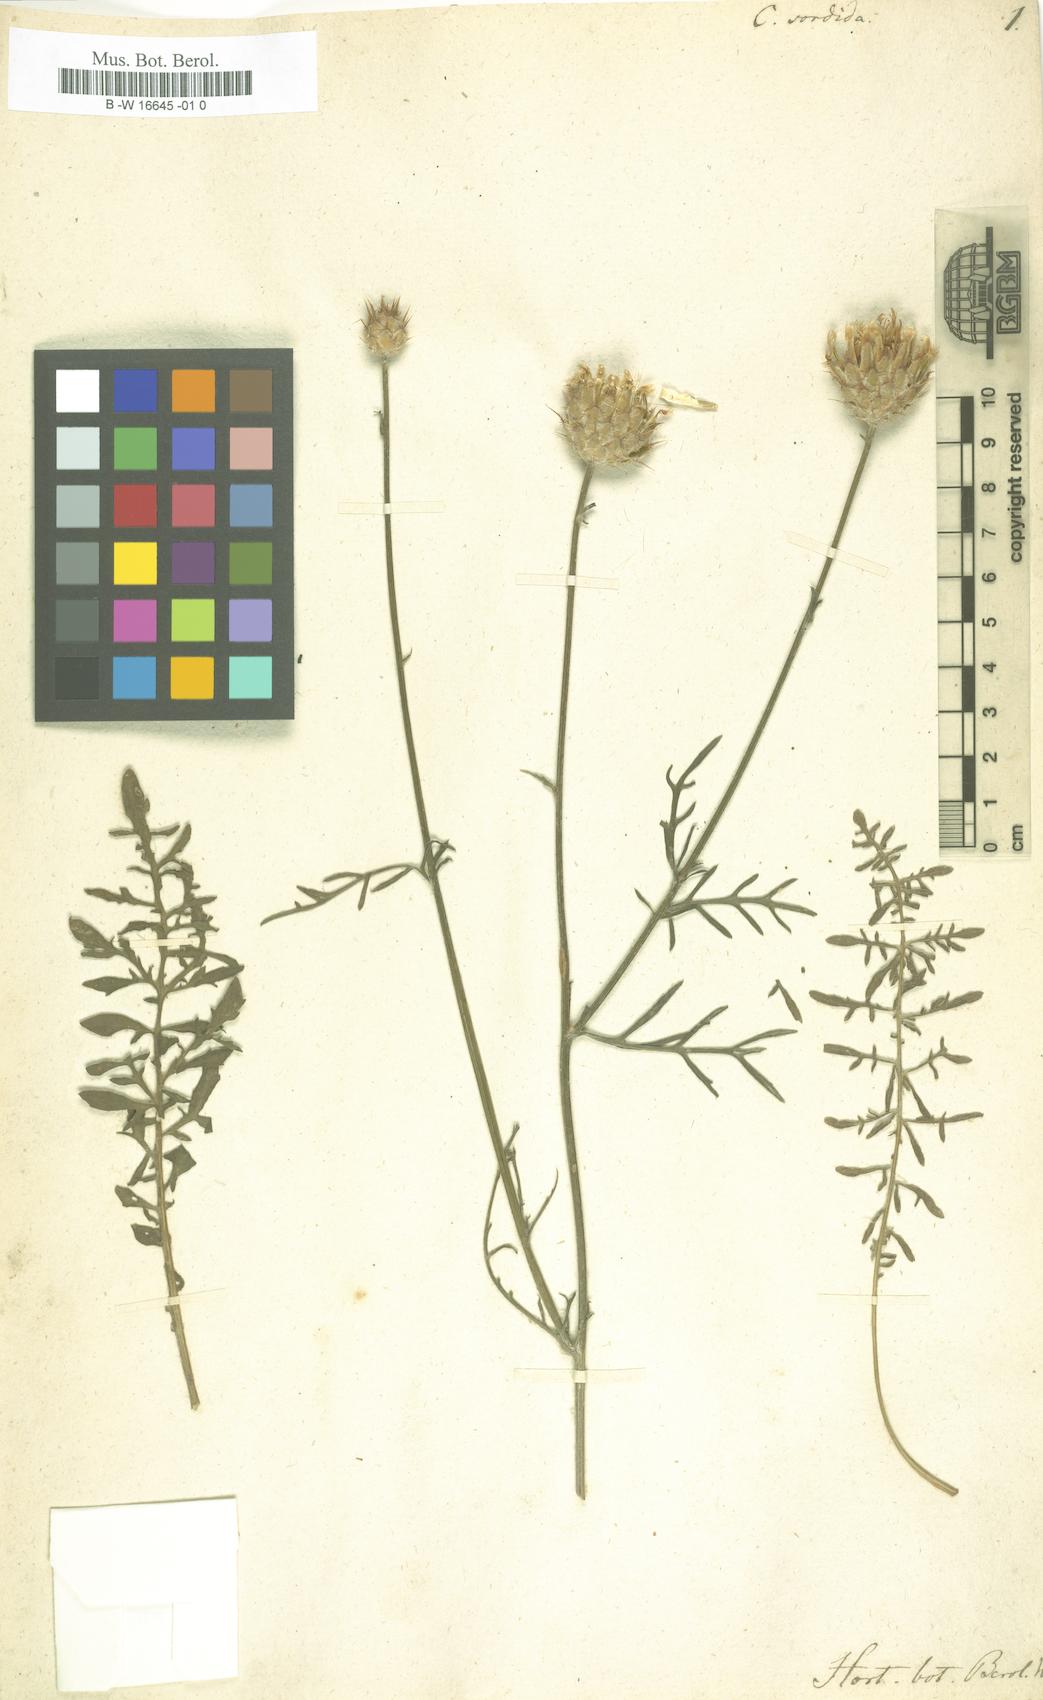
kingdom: Plantae
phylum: Tracheophyta
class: Magnoliopsida
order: Asterales
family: Asteraceae
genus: Centaurea
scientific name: Centaurea dichroantha
